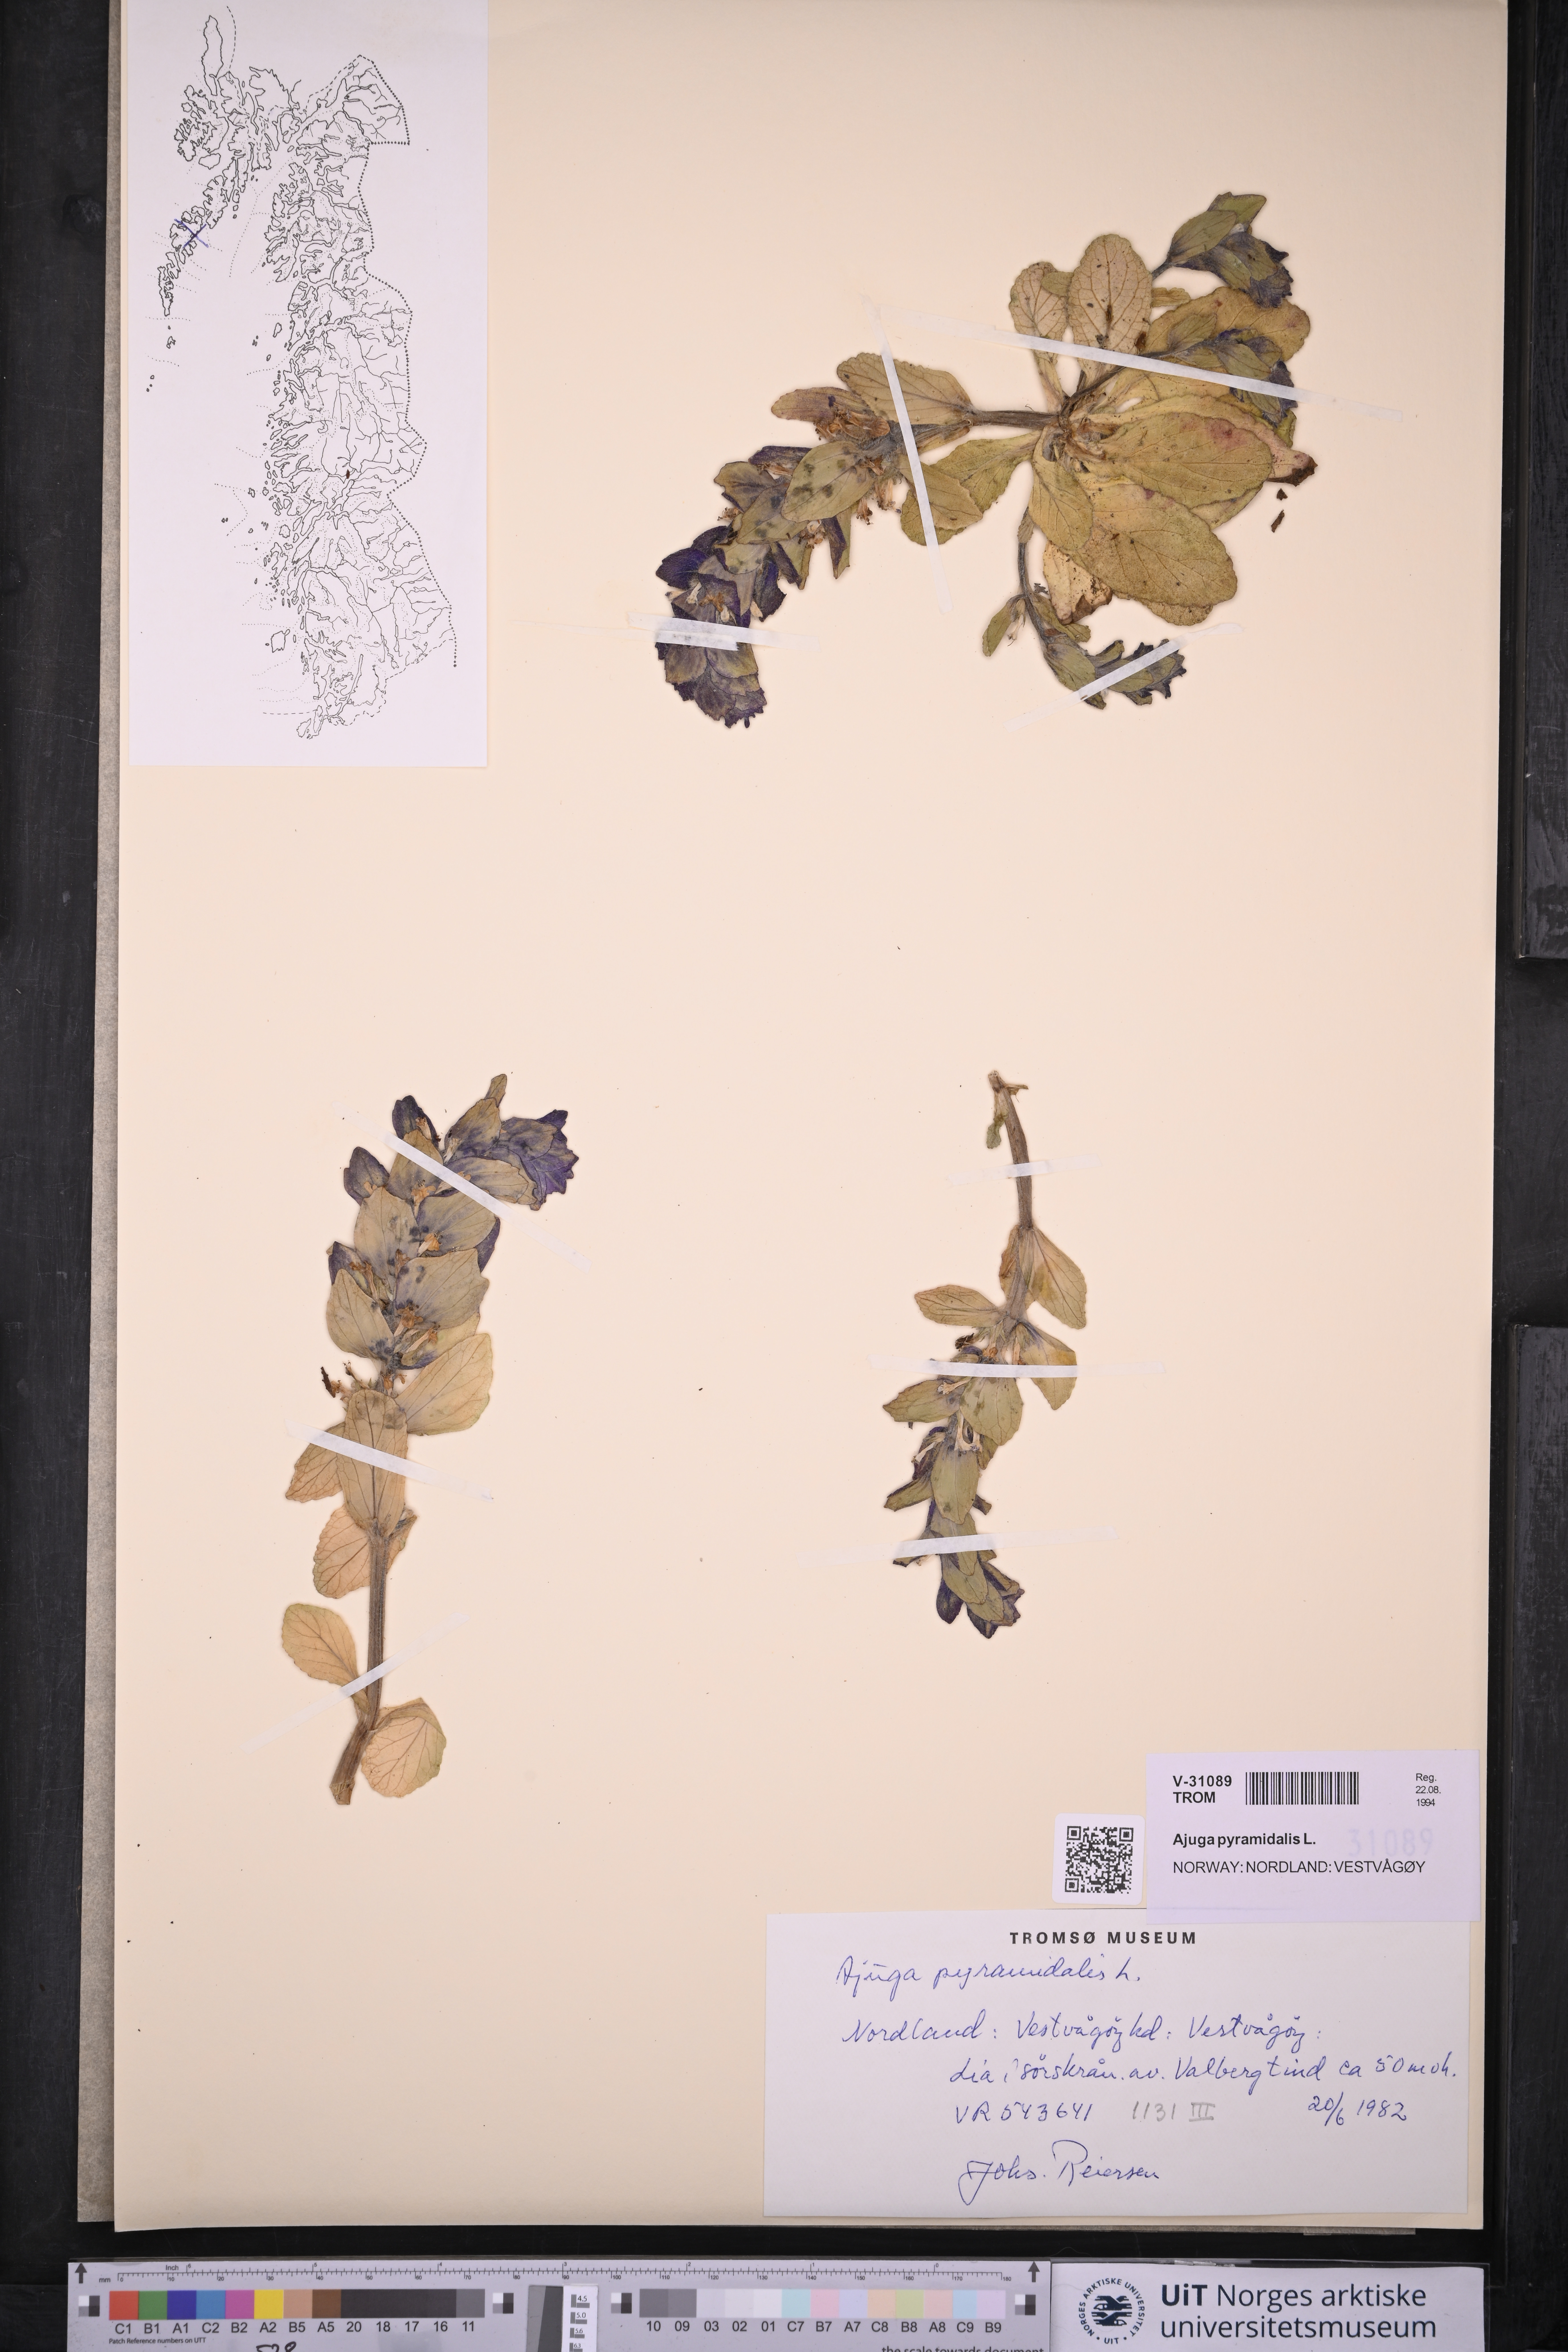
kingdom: Plantae
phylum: Tracheophyta
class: Magnoliopsida
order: Lamiales
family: Lamiaceae
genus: Ajuga
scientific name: Ajuga pyramidalis
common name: Pyramid bugle
